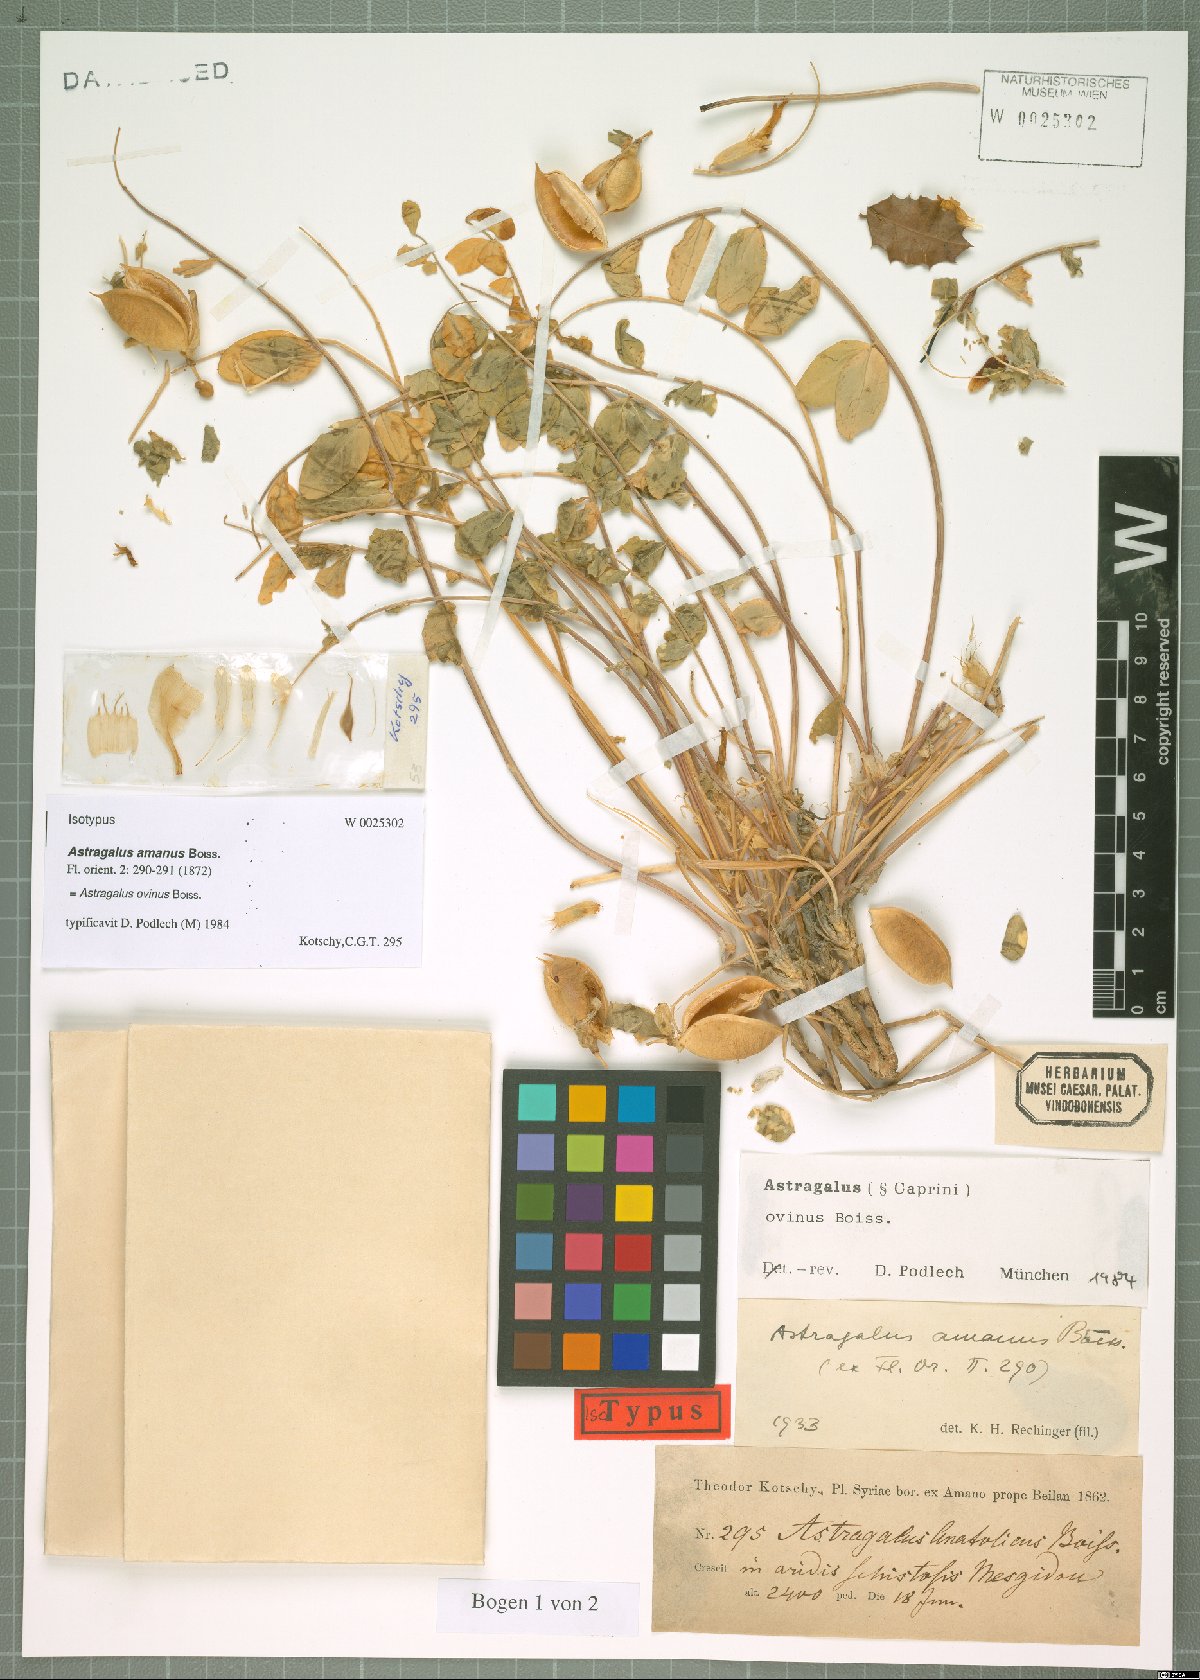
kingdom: Plantae
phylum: Tracheophyta
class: Magnoliopsida
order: Fabales
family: Fabaceae
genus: Astragalus
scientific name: Astragalus ovinus
